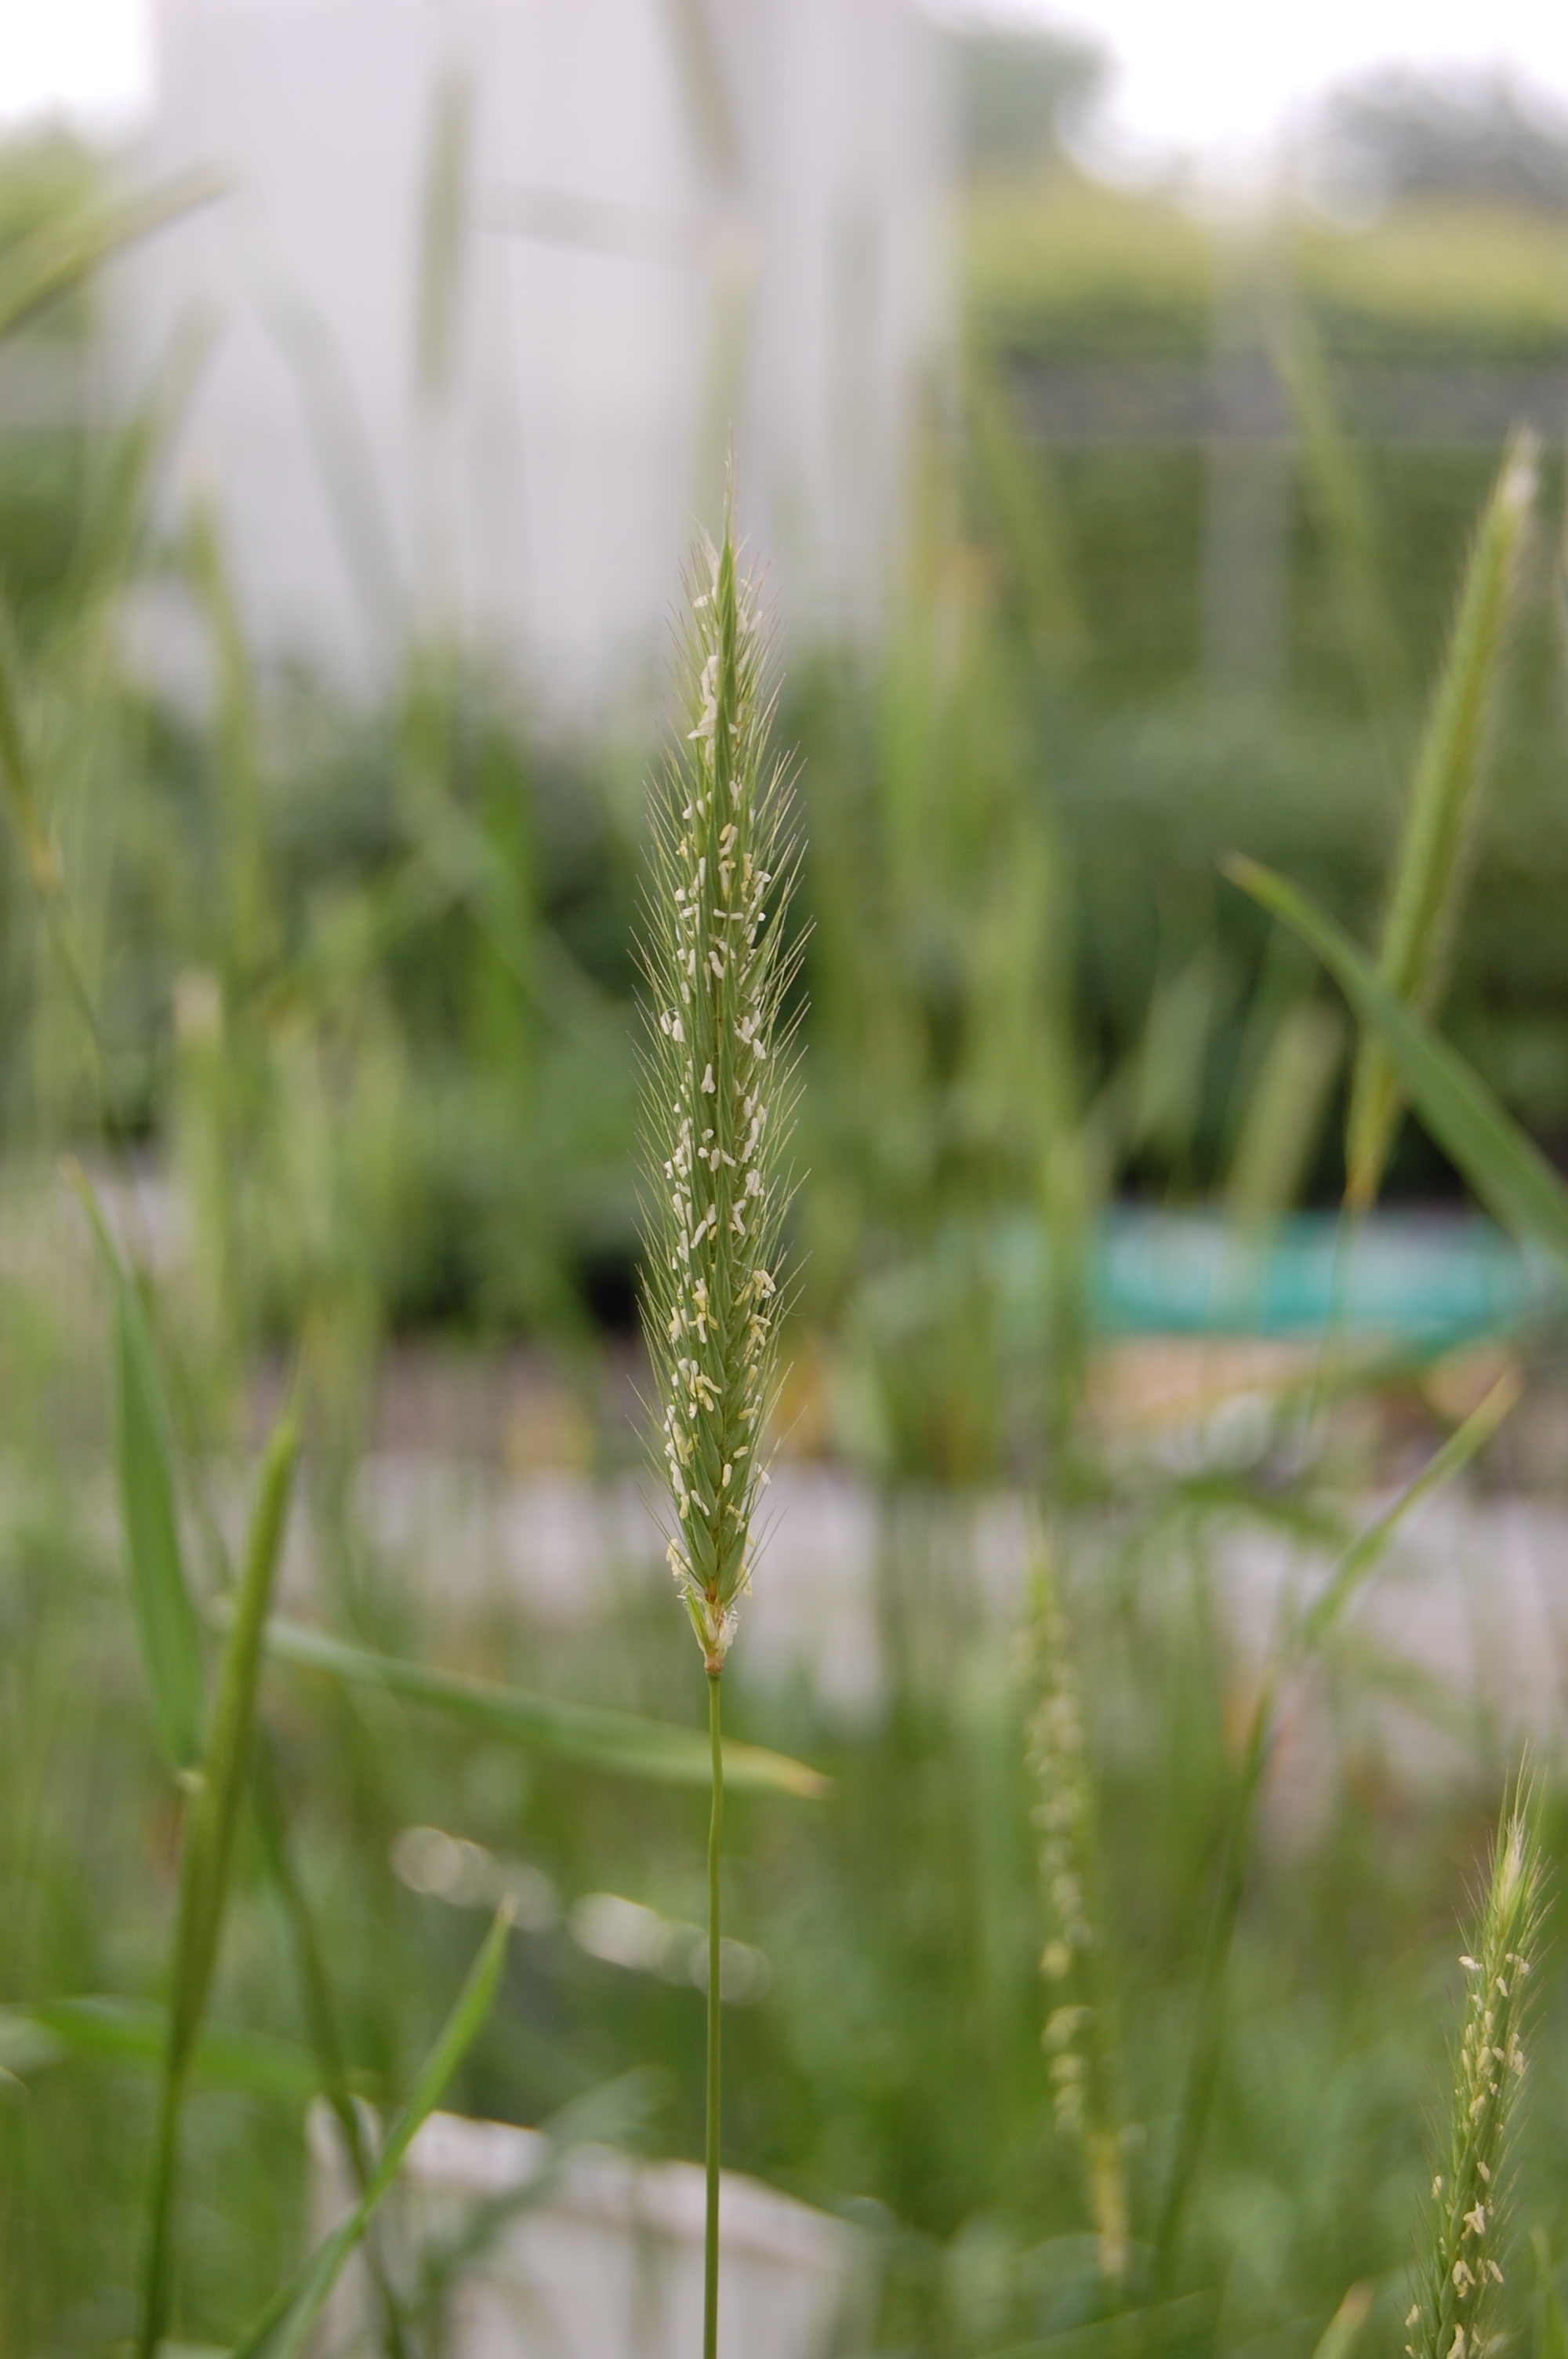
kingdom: Plantae
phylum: Tracheophyta
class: Liliopsida
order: Poales
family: Poaceae
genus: Hordeum
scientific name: Hordeum bogdanii
